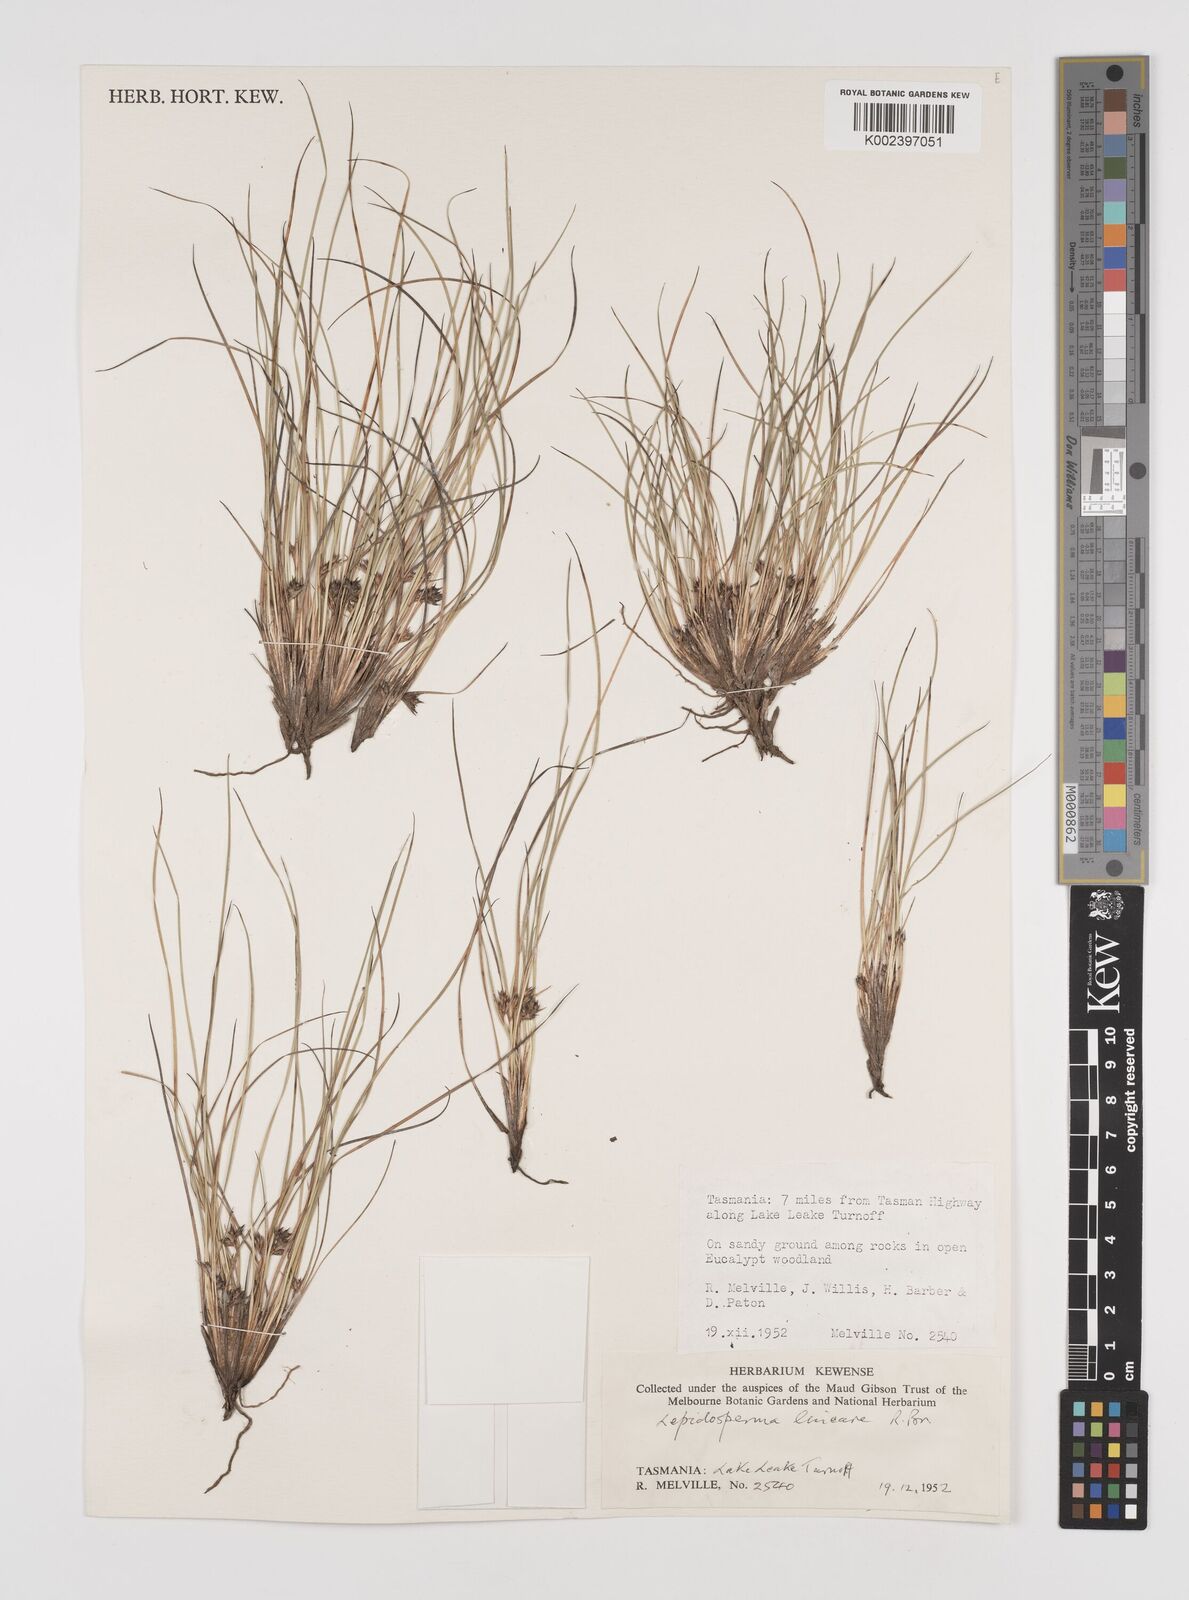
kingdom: Plantae
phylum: Tracheophyta
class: Liliopsida
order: Poales
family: Cyperaceae
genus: Lepidosperma
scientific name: Lepidosperma inops
